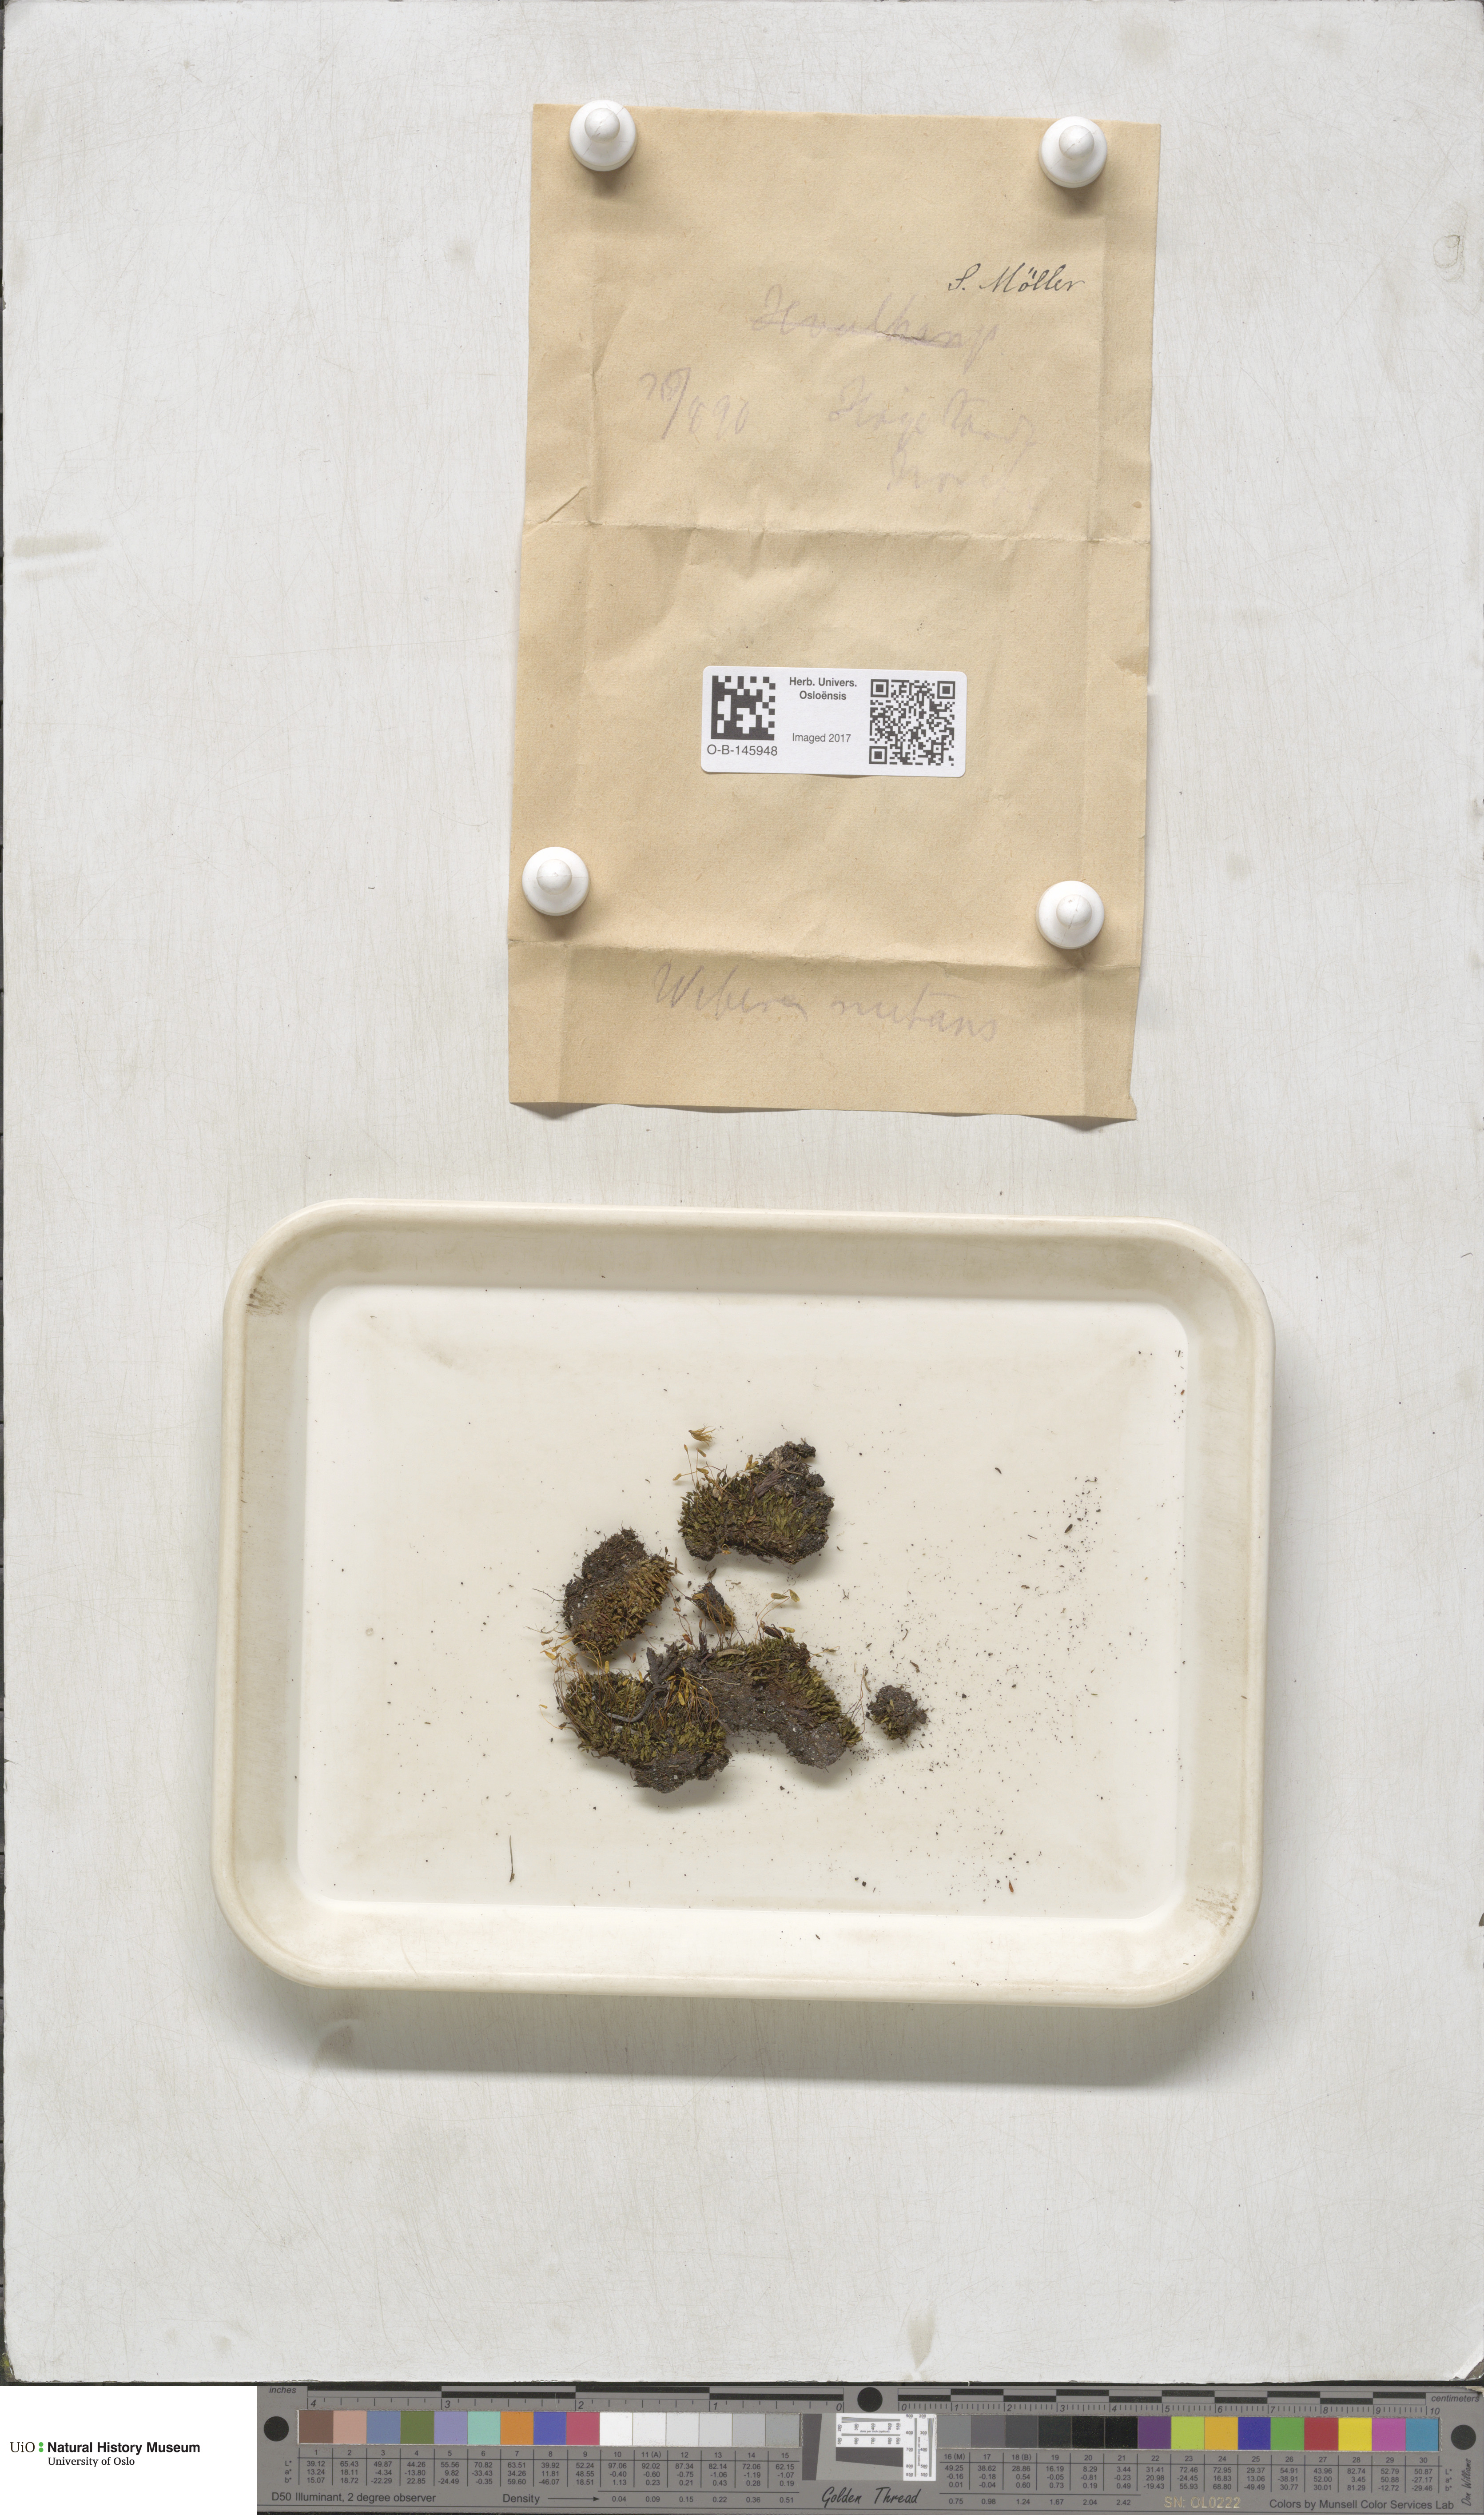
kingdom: Plantae
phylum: Bryophyta
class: Bryopsida
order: Bryales
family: Mniaceae
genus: Pohlia
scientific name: Pohlia nutans
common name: Nodding thread-moss
